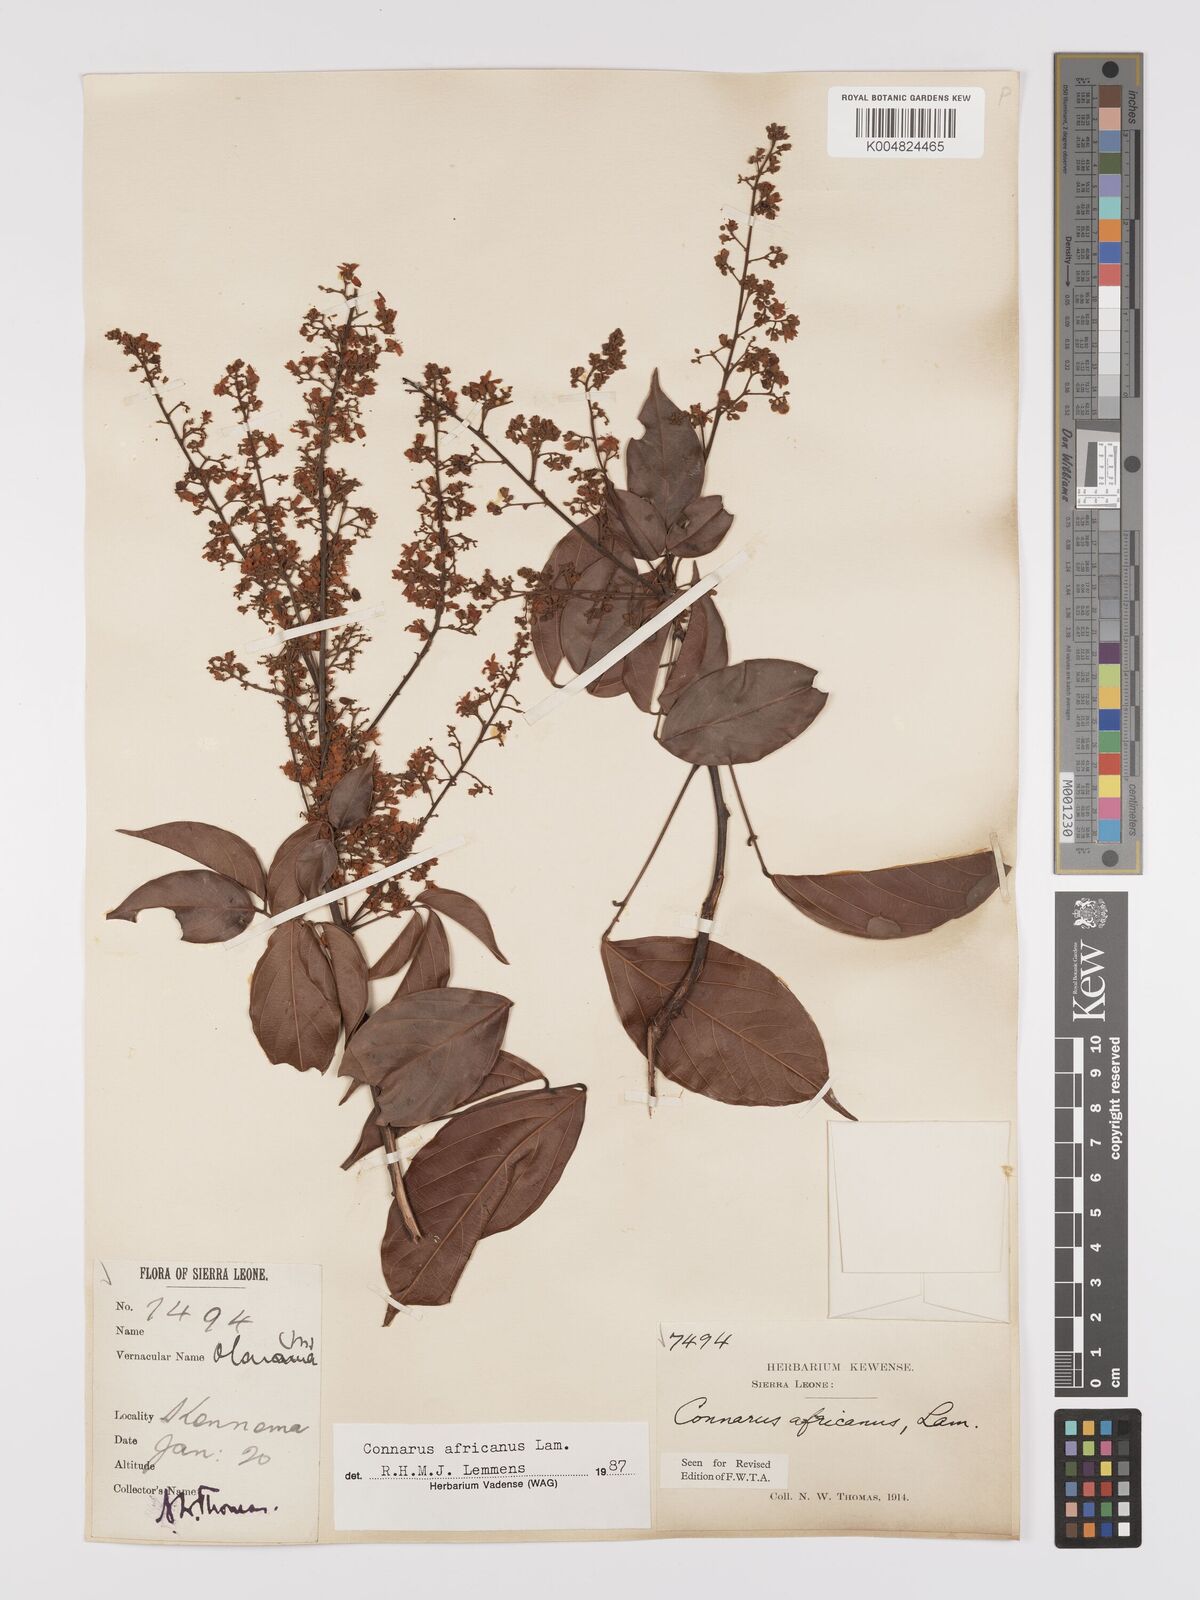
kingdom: Plantae
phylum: Tracheophyta
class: Magnoliopsida
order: Oxalidales
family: Connaraceae
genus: Connarus
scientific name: Connarus africanus
